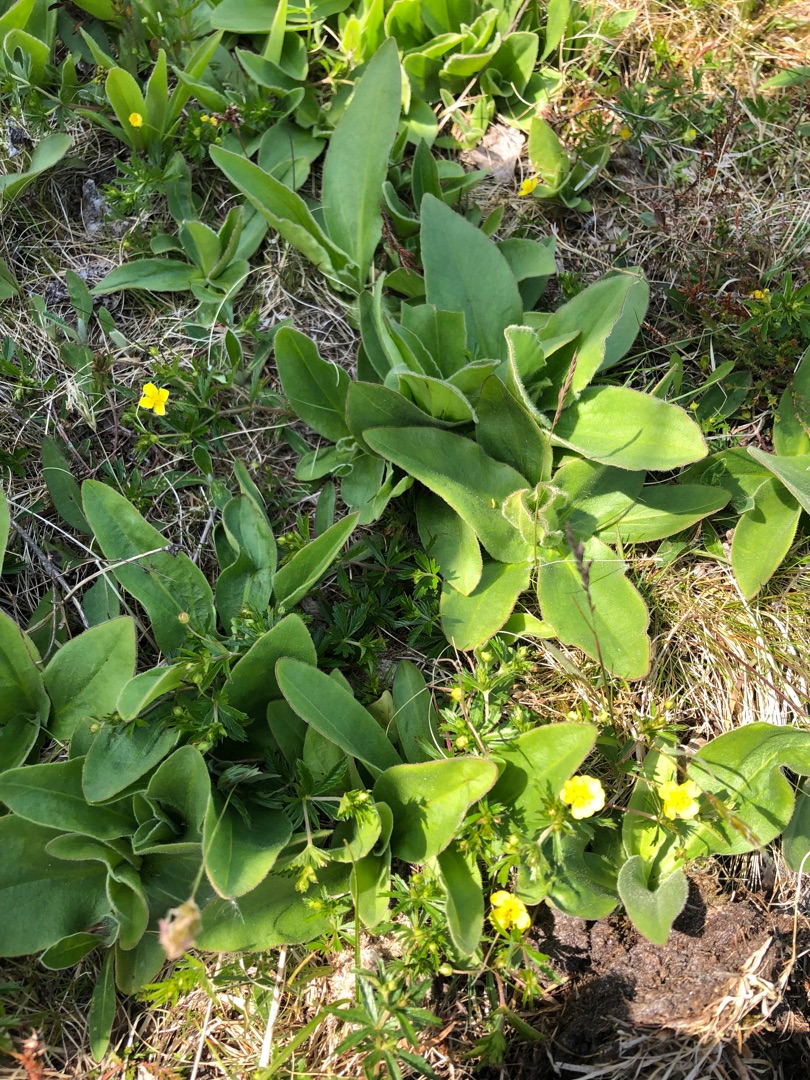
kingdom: Plantae
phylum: Tracheophyta
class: Magnoliopsida
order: Asterales
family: Asteraceae
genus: Arnica
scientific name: Arnica montana
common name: Guldblomme
